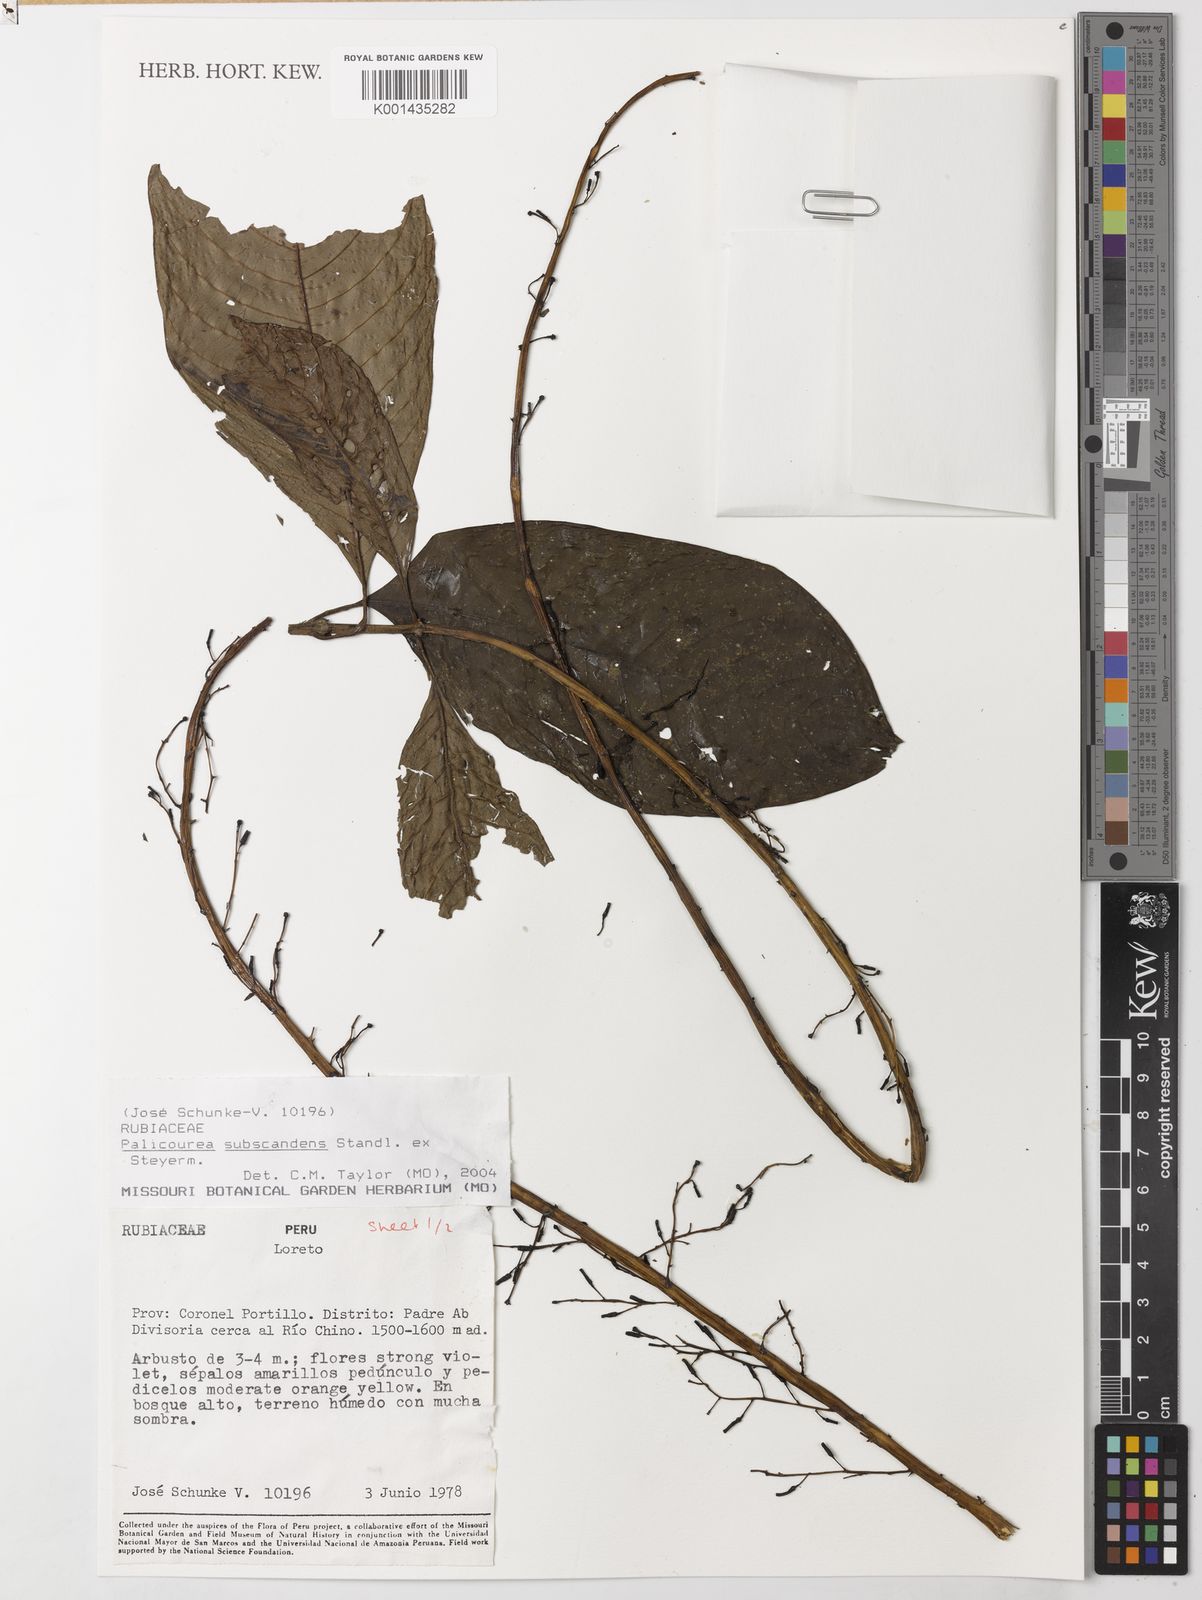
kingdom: Plantae
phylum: Tracheophyta
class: Magnoliopsida
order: Gentianales
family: Rubiaceae
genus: Palicourea
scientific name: Palicourea subscandens
